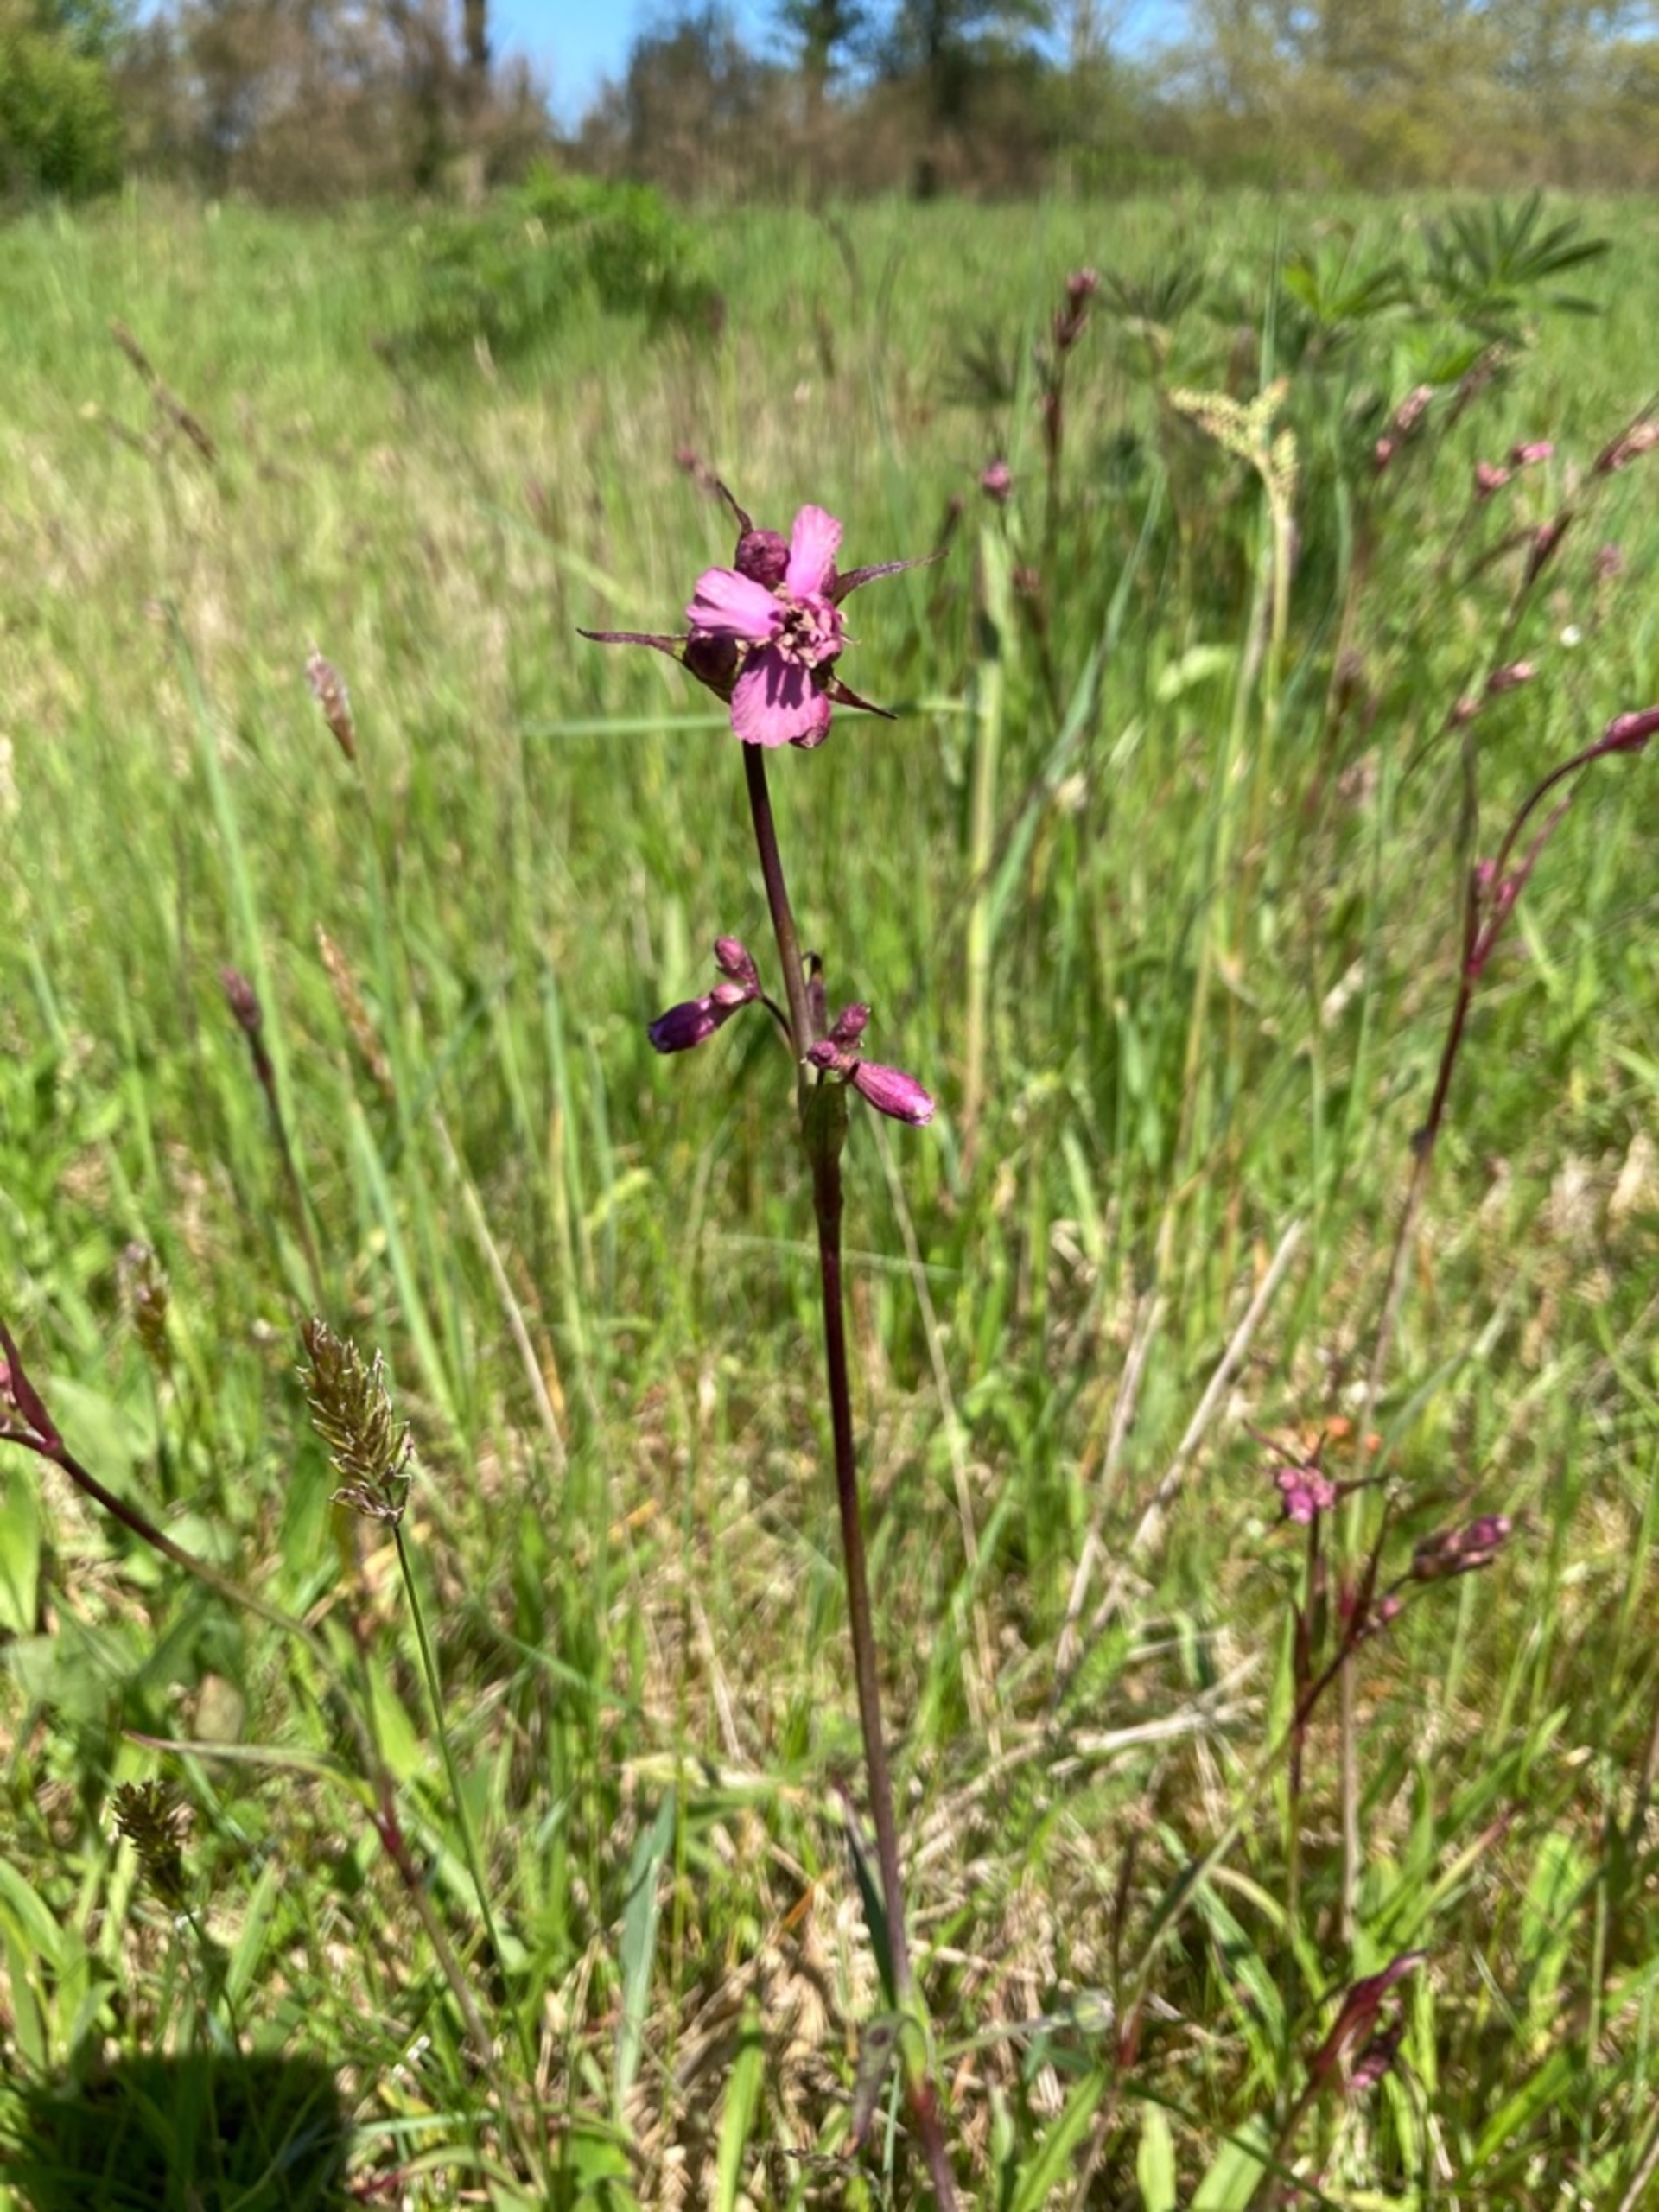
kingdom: Plantae
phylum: Tracheophyta
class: Magnoliopsida
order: Caryophyllales
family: Caryophyllaceae
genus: Viscaria
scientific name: Viscaria vulgaris
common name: Tjærenellike
